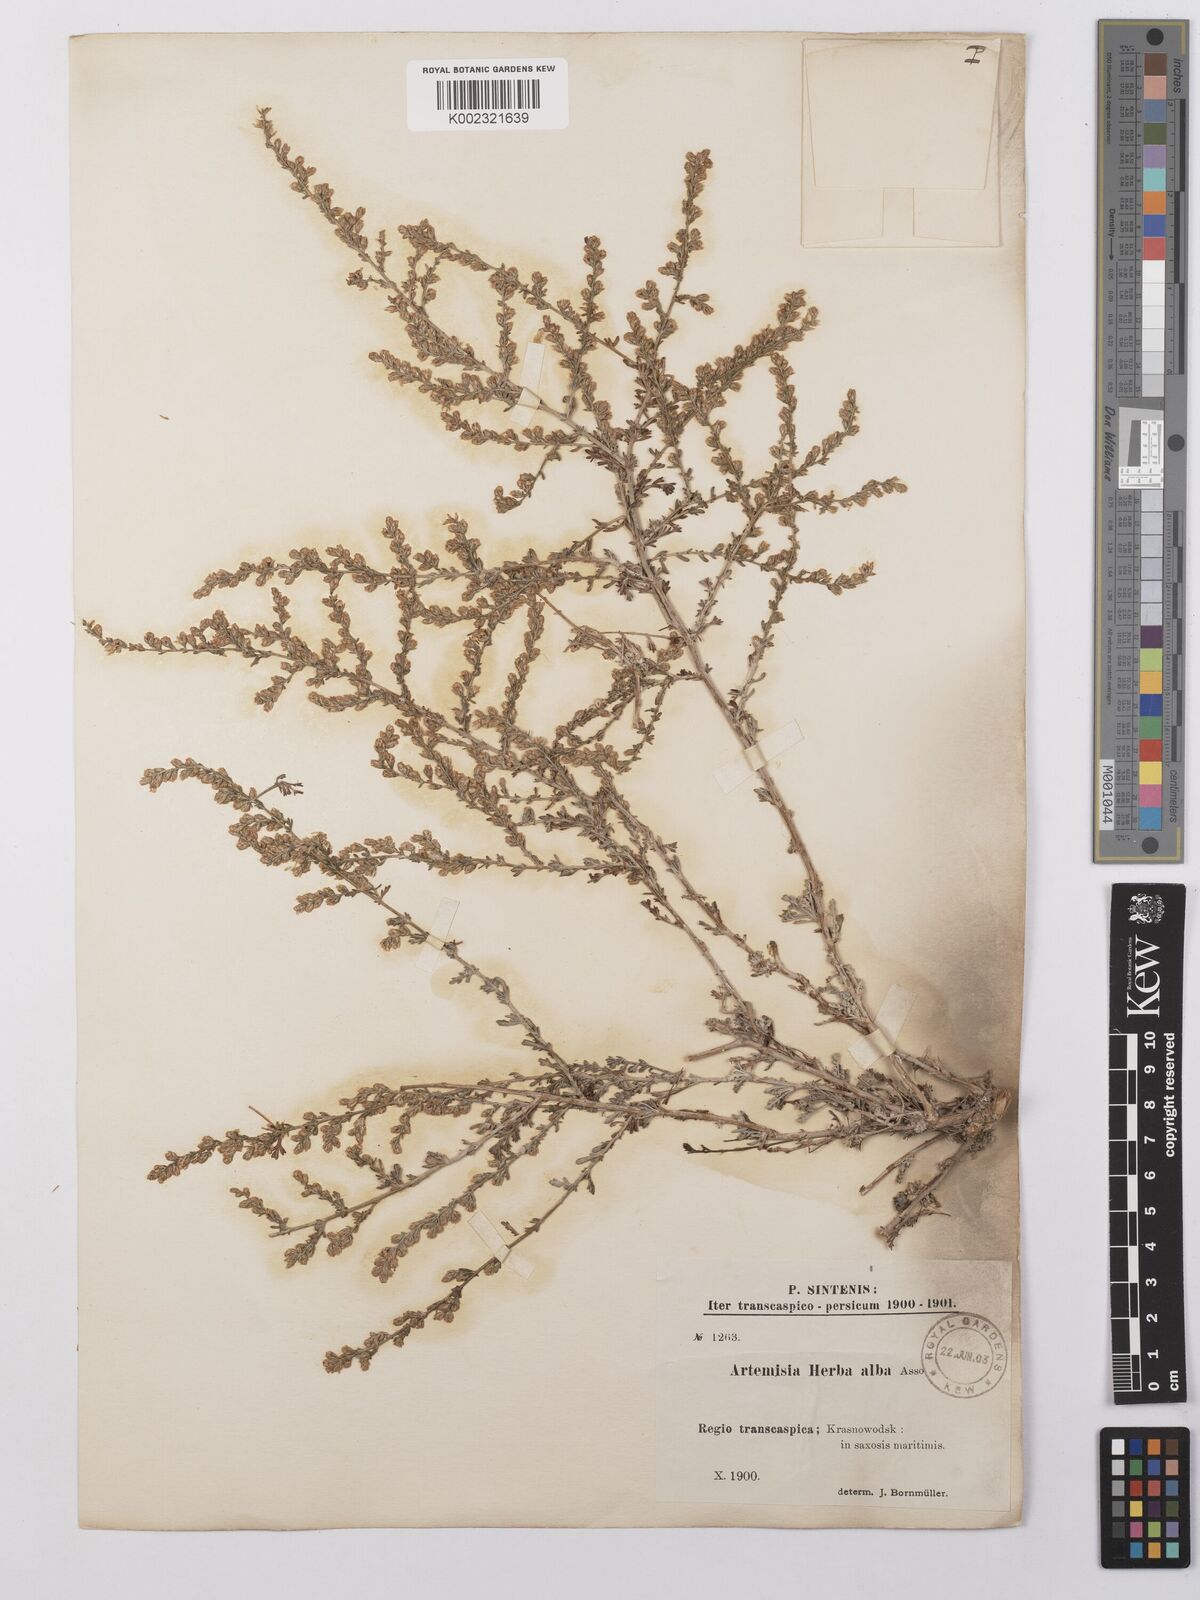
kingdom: Plantae
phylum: Tracheophyta
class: Magnoliopsida
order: Asterales
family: Asteraceae
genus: Artemisia
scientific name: Artemisia herba-alba
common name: White wormwood
